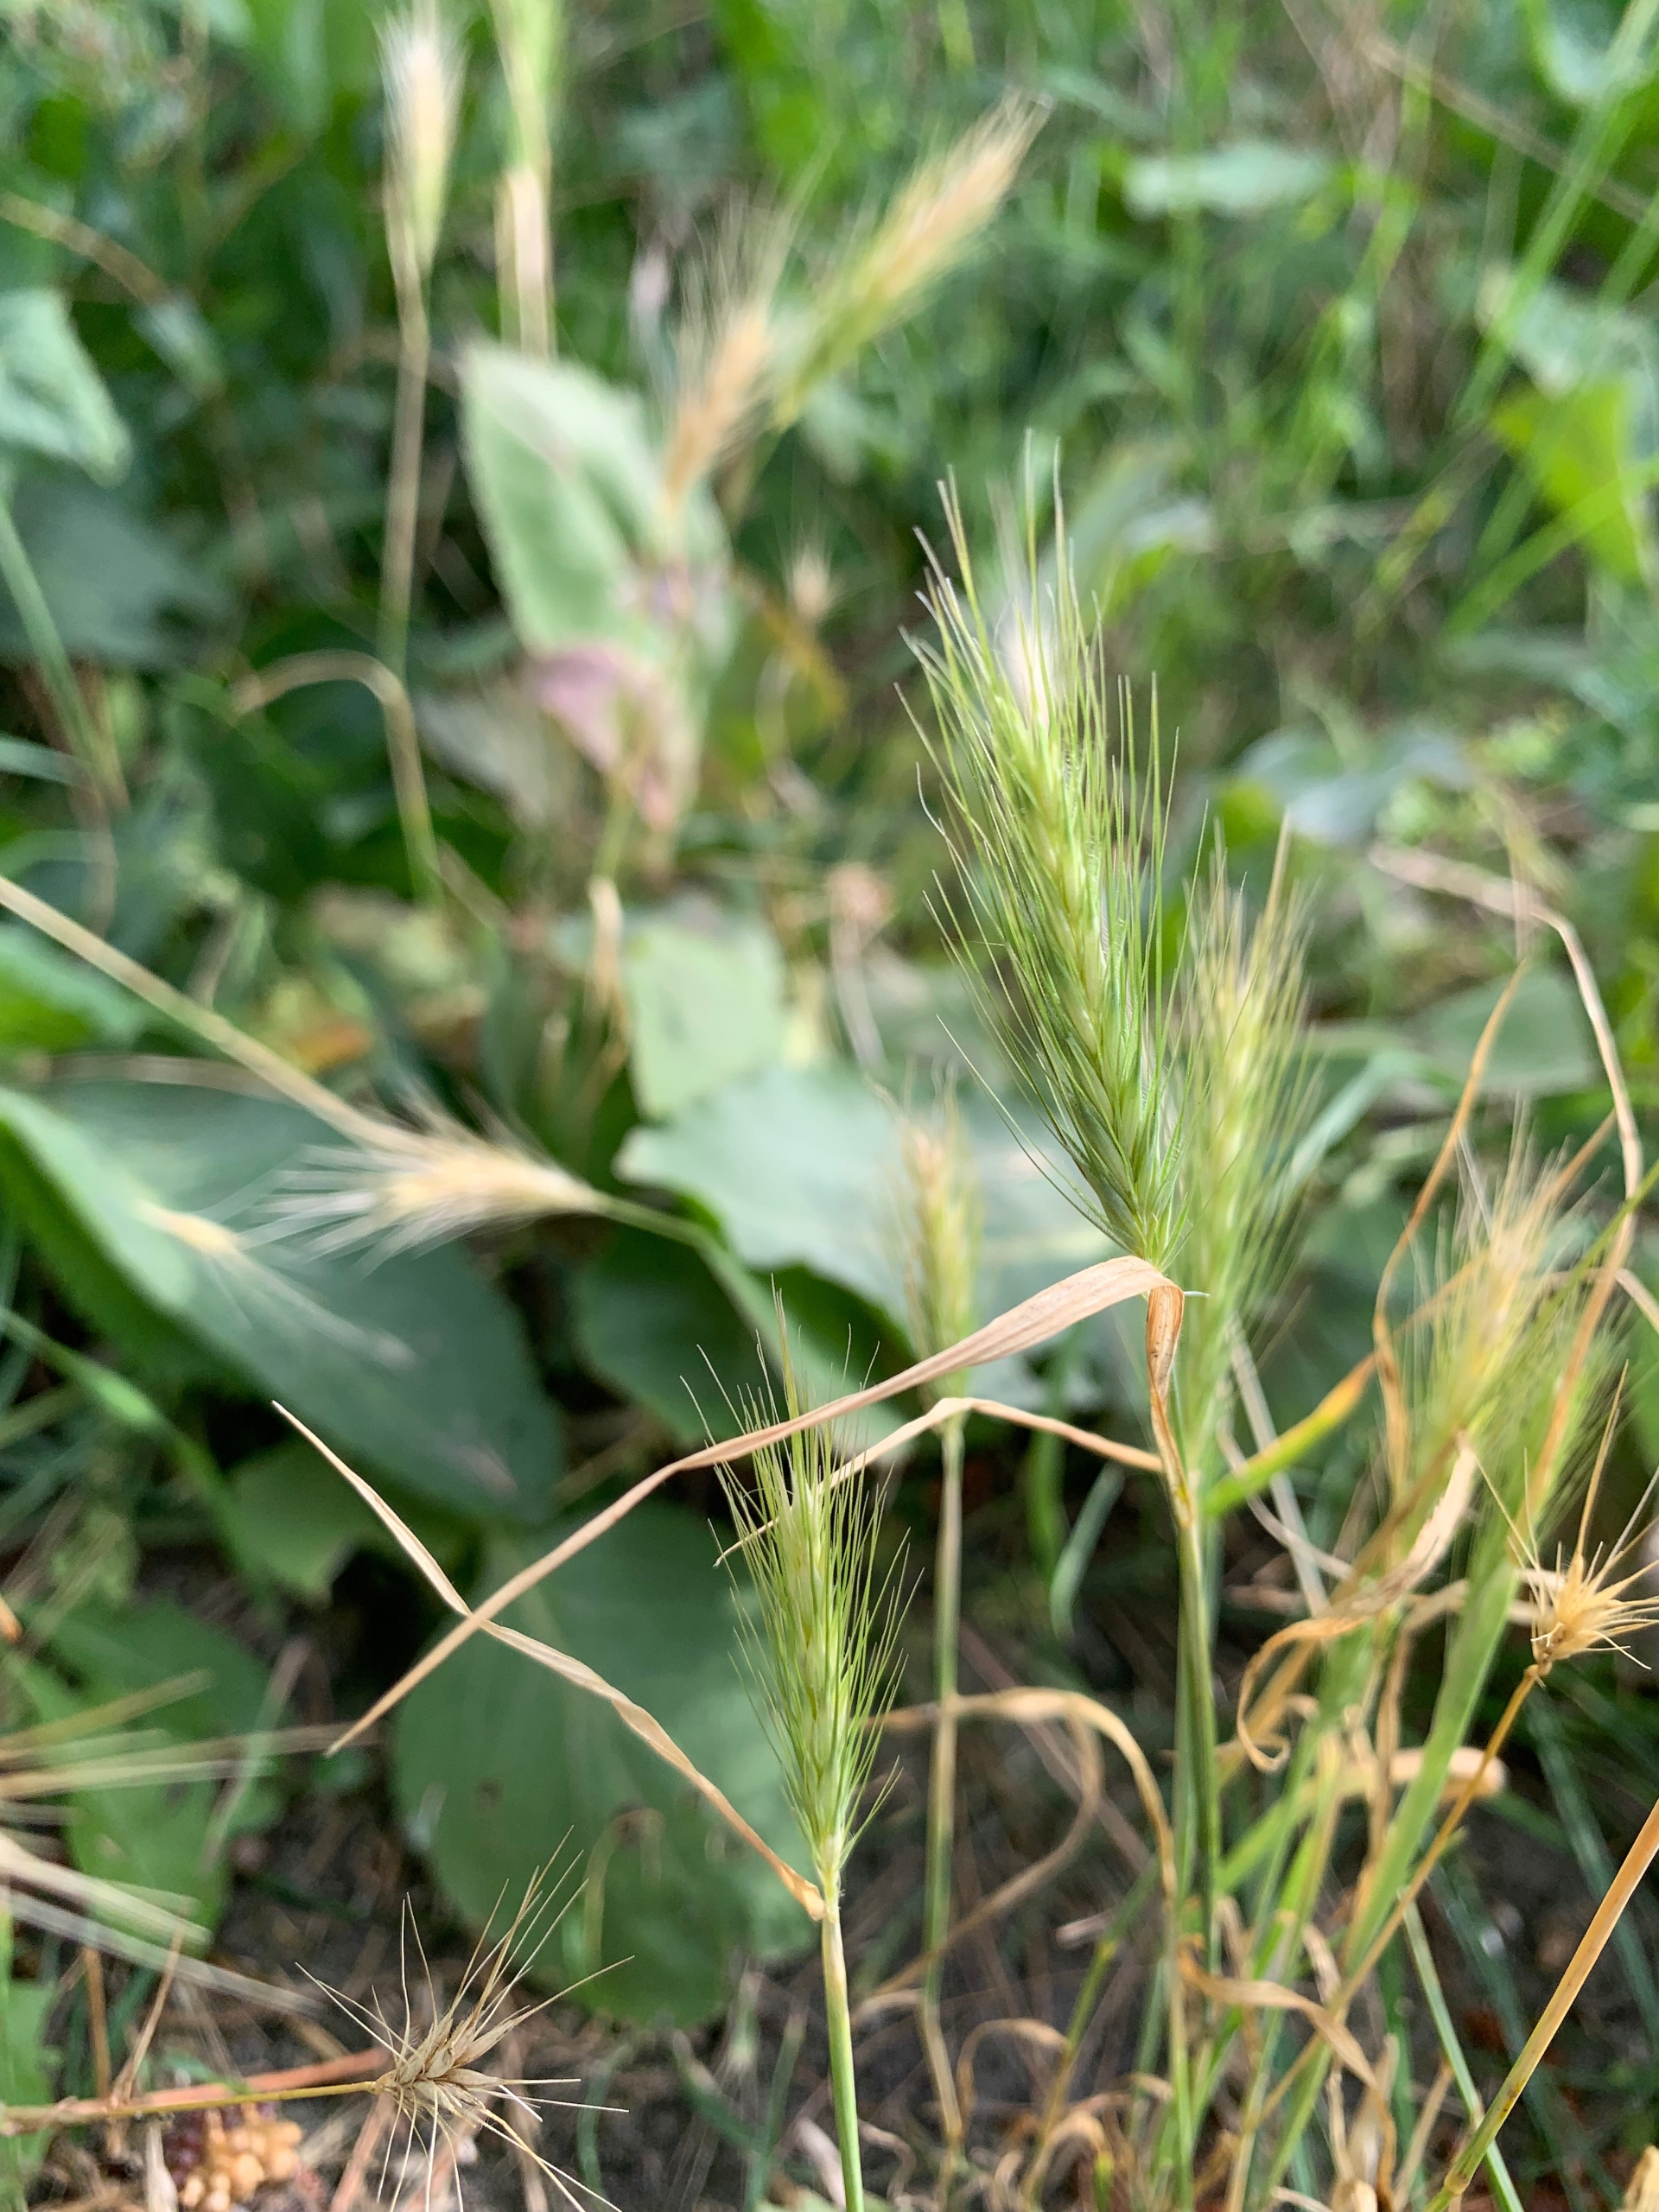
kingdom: Plantae
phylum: Tracheophyta
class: Liliopsida
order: Poales
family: Poaceae
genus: Hordeum
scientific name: Hordeum murinum
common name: Gold byg
